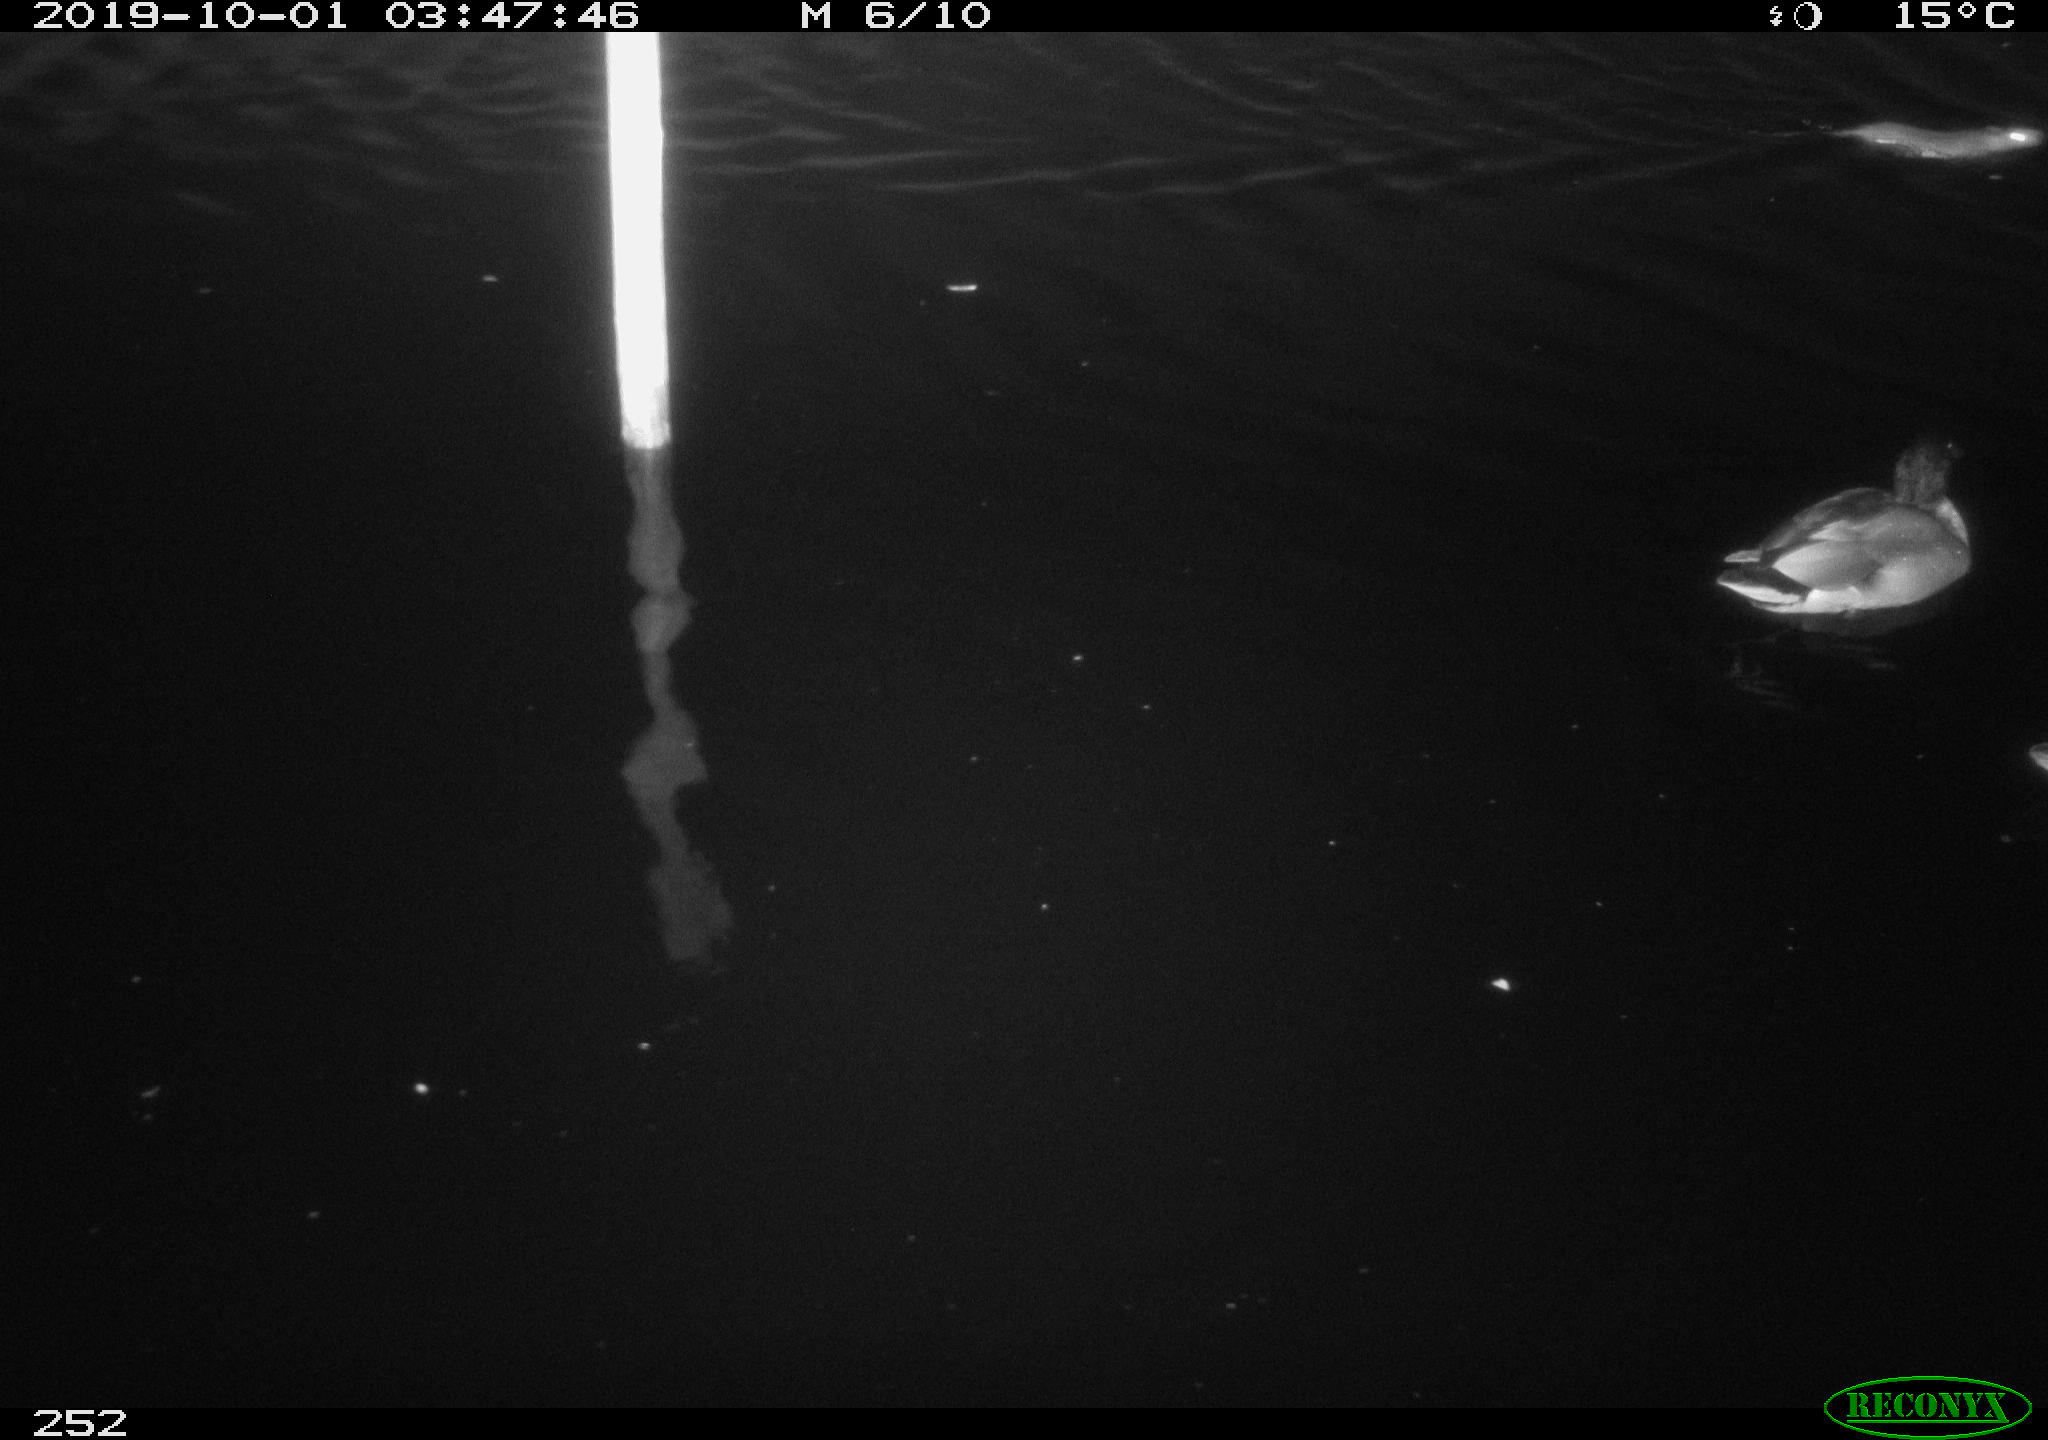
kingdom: Animalia
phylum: Chordata
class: Aves
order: Anseriformes
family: Anatidae
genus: Anas
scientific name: Anas platyrhynchos
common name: Mallard
